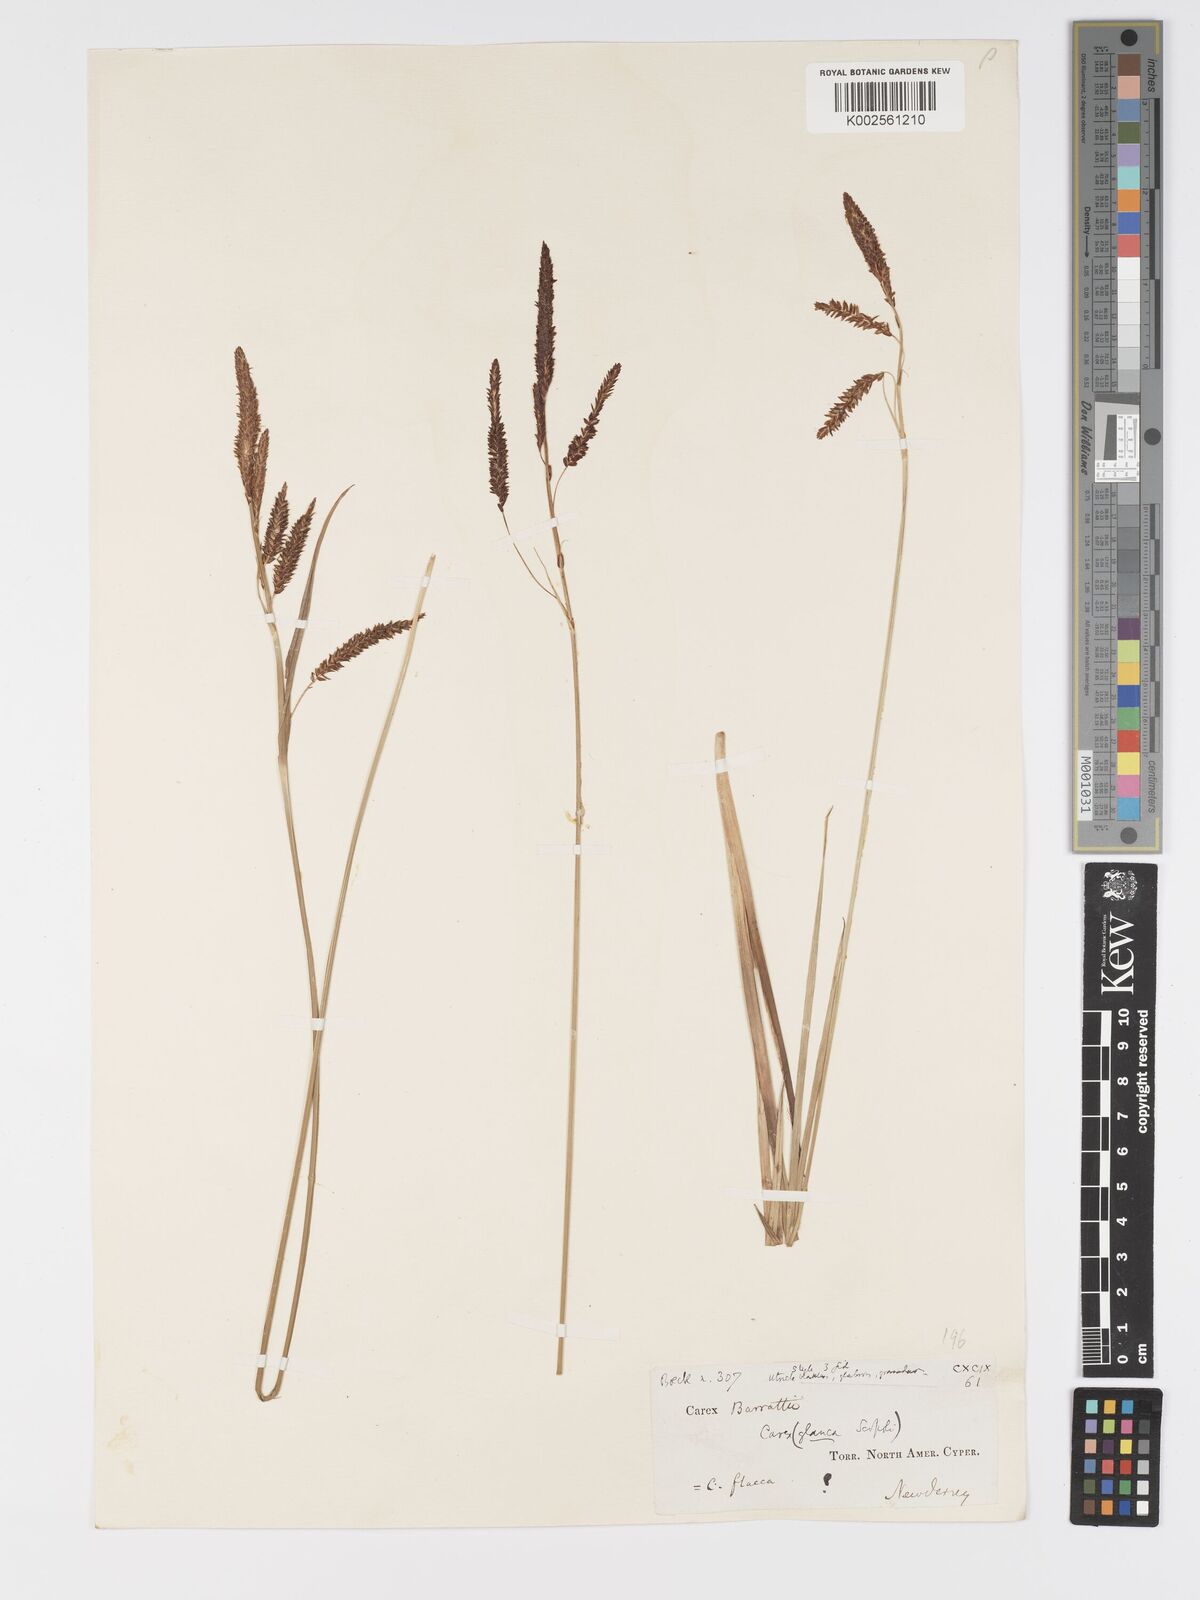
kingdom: Plantae
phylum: Tracheophyta
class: Liliopsida
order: Poales
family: Cyperaceae
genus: Carex
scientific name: Carex barrattii
